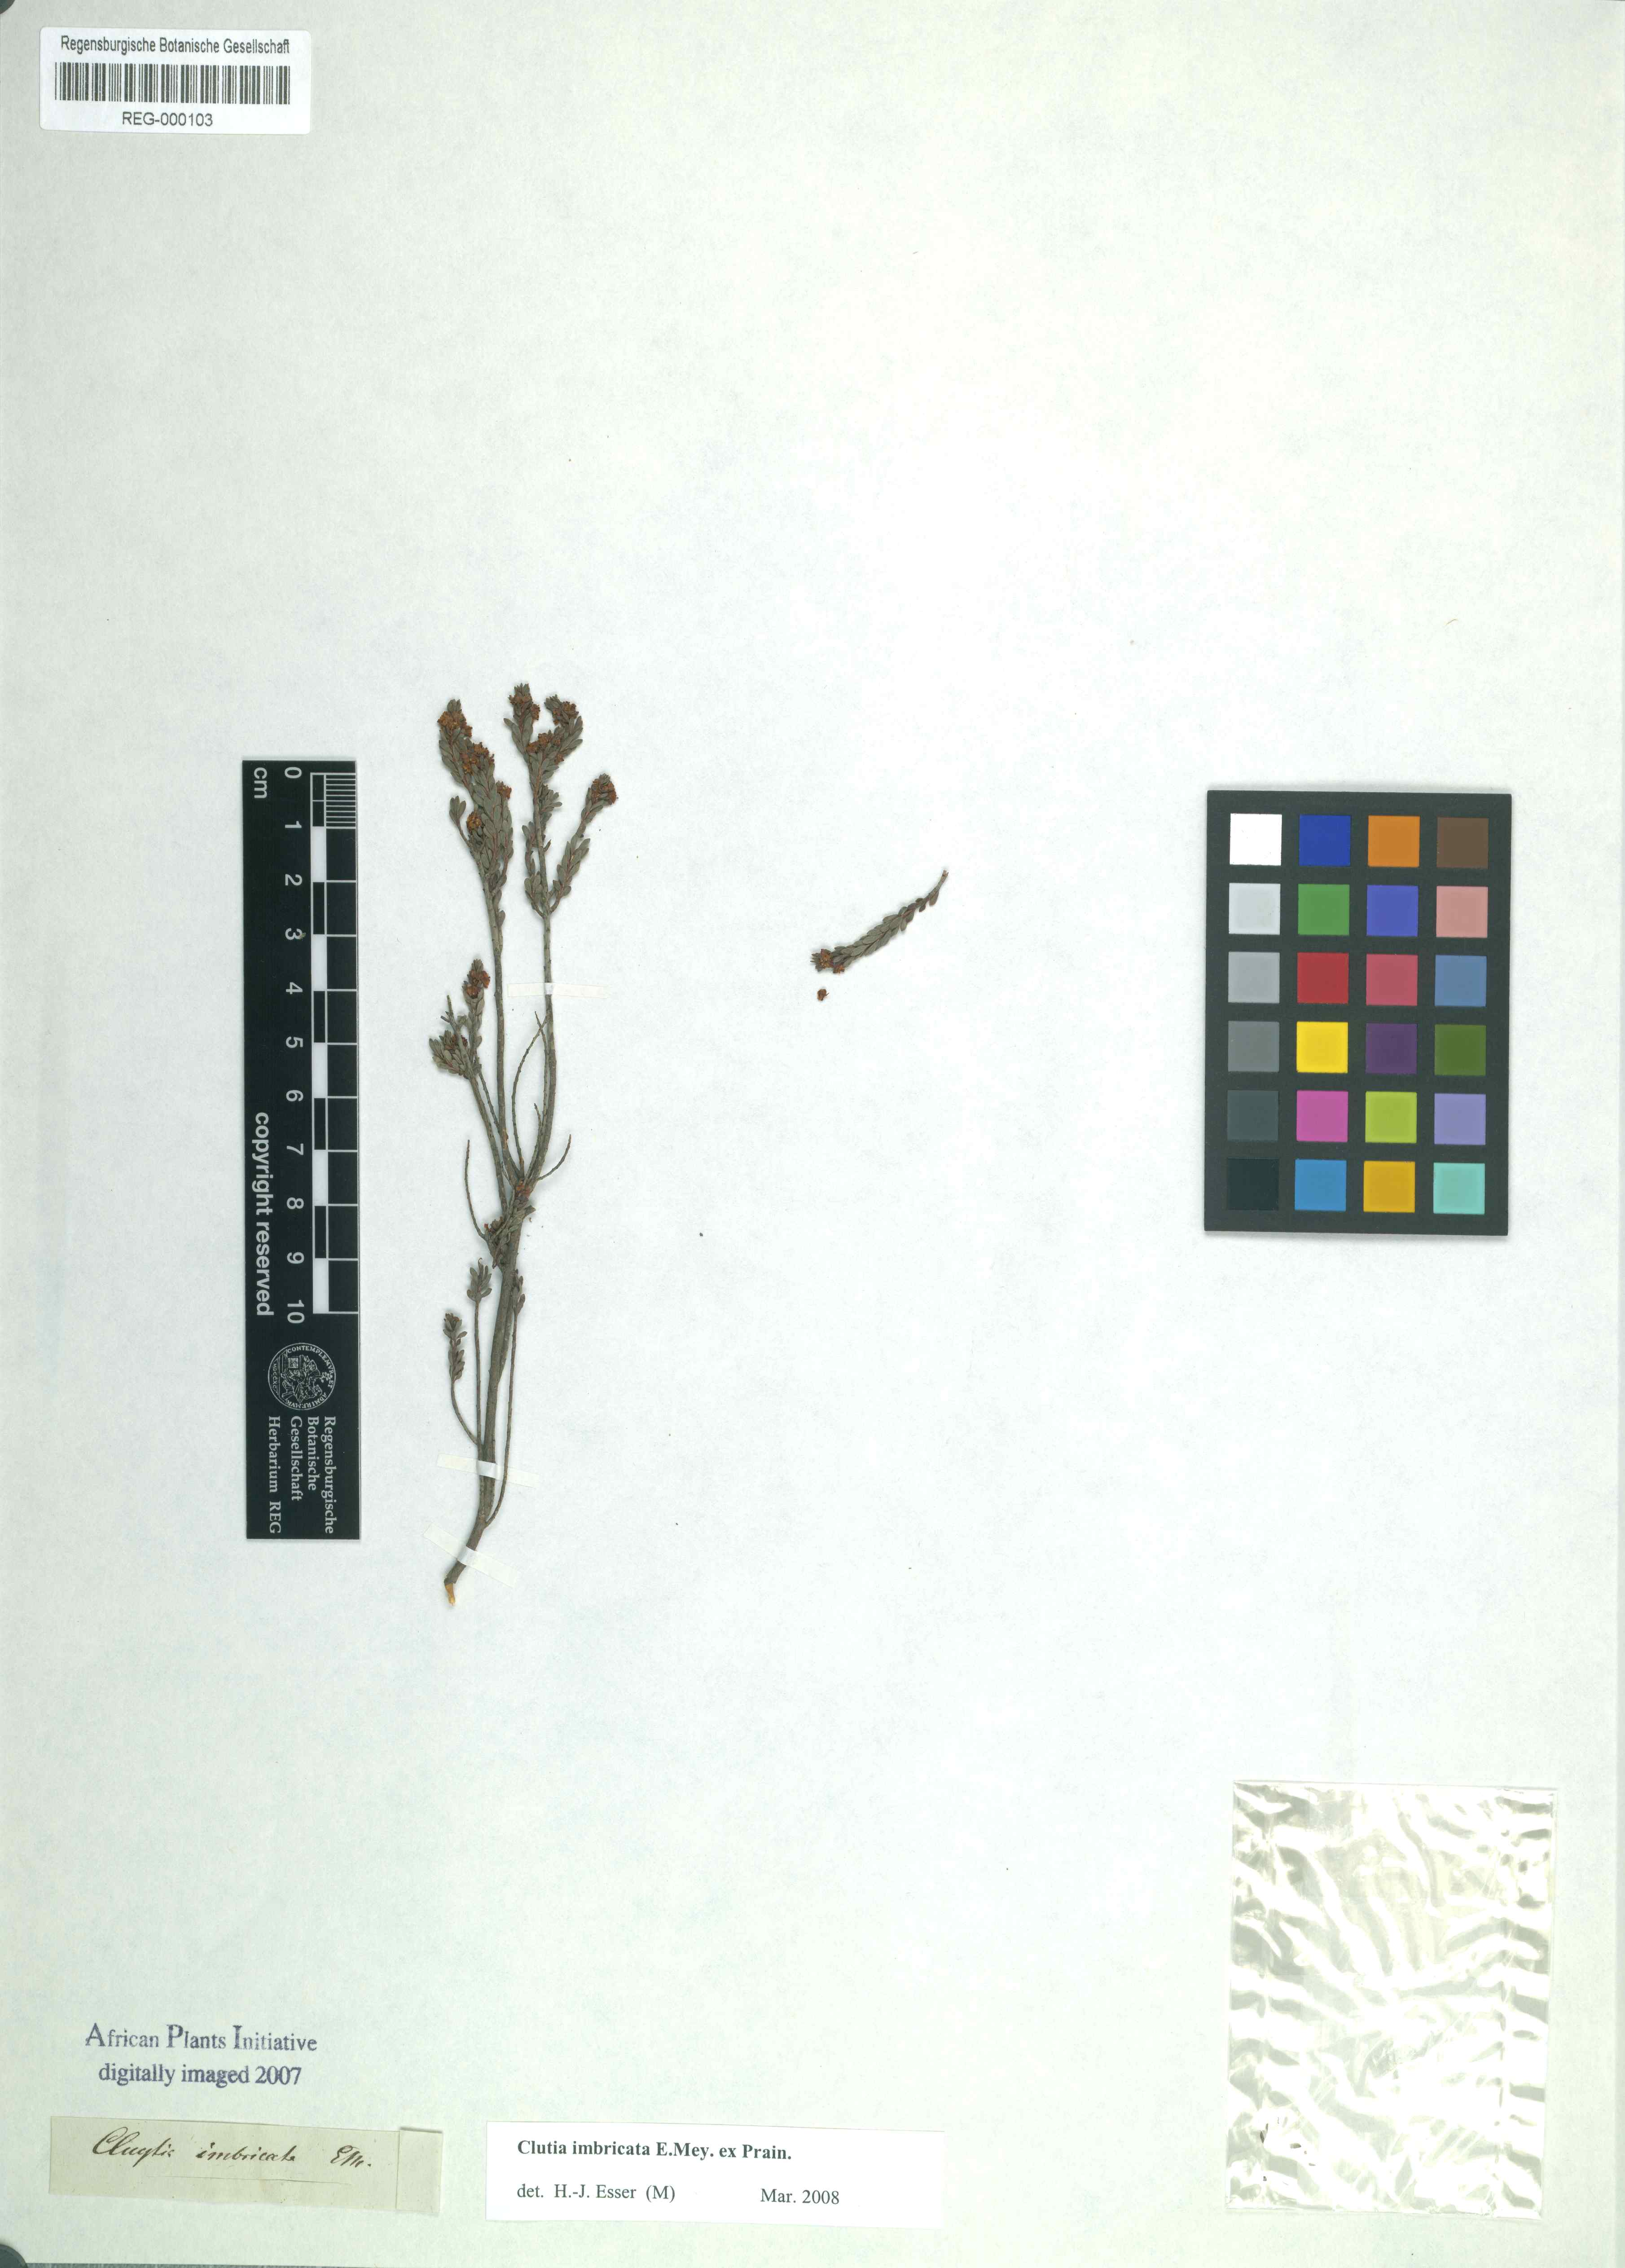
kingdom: Plantae
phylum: Tracheophyta
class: Magnoliopsida
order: Malpighiales
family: Peraceae
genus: Clutia
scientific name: Clutia imbricata
